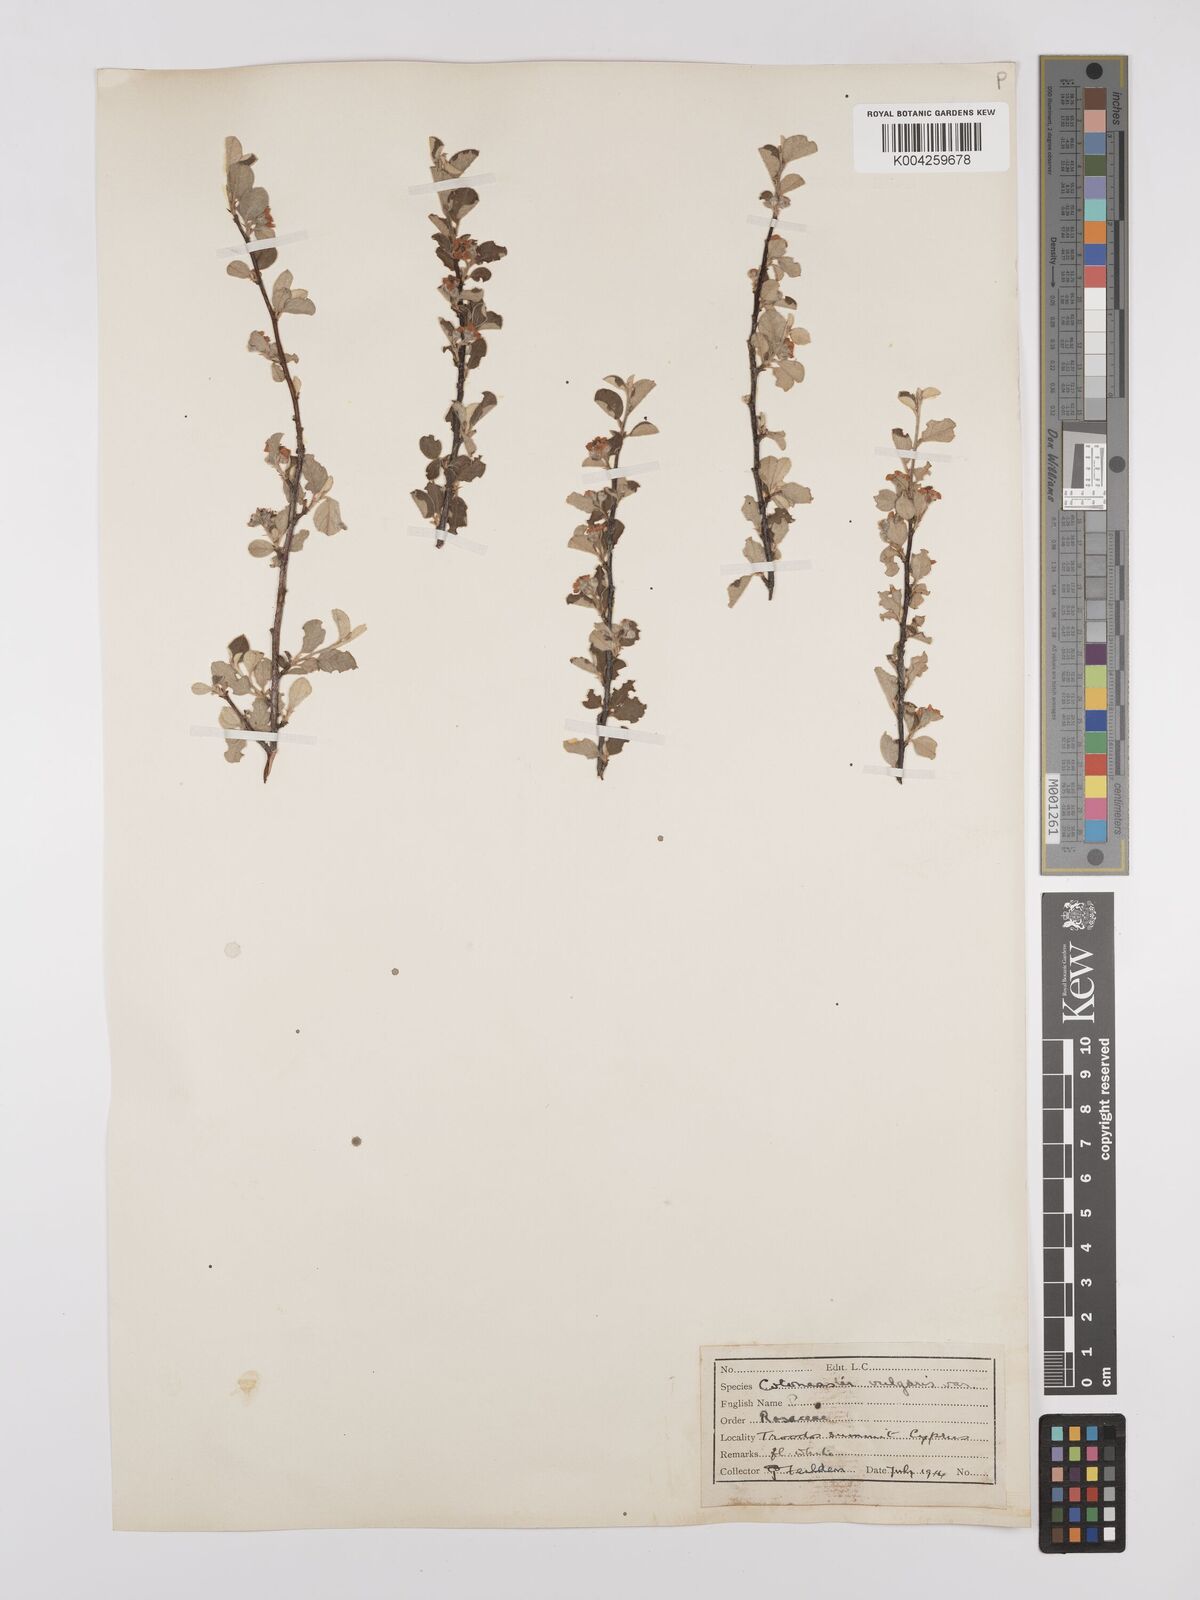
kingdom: Plantae
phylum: Tracheophyta
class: Magnoliopsida
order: Rosales
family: Rosaceae
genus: Cotoneaster
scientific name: Cotoneaster nummularius
